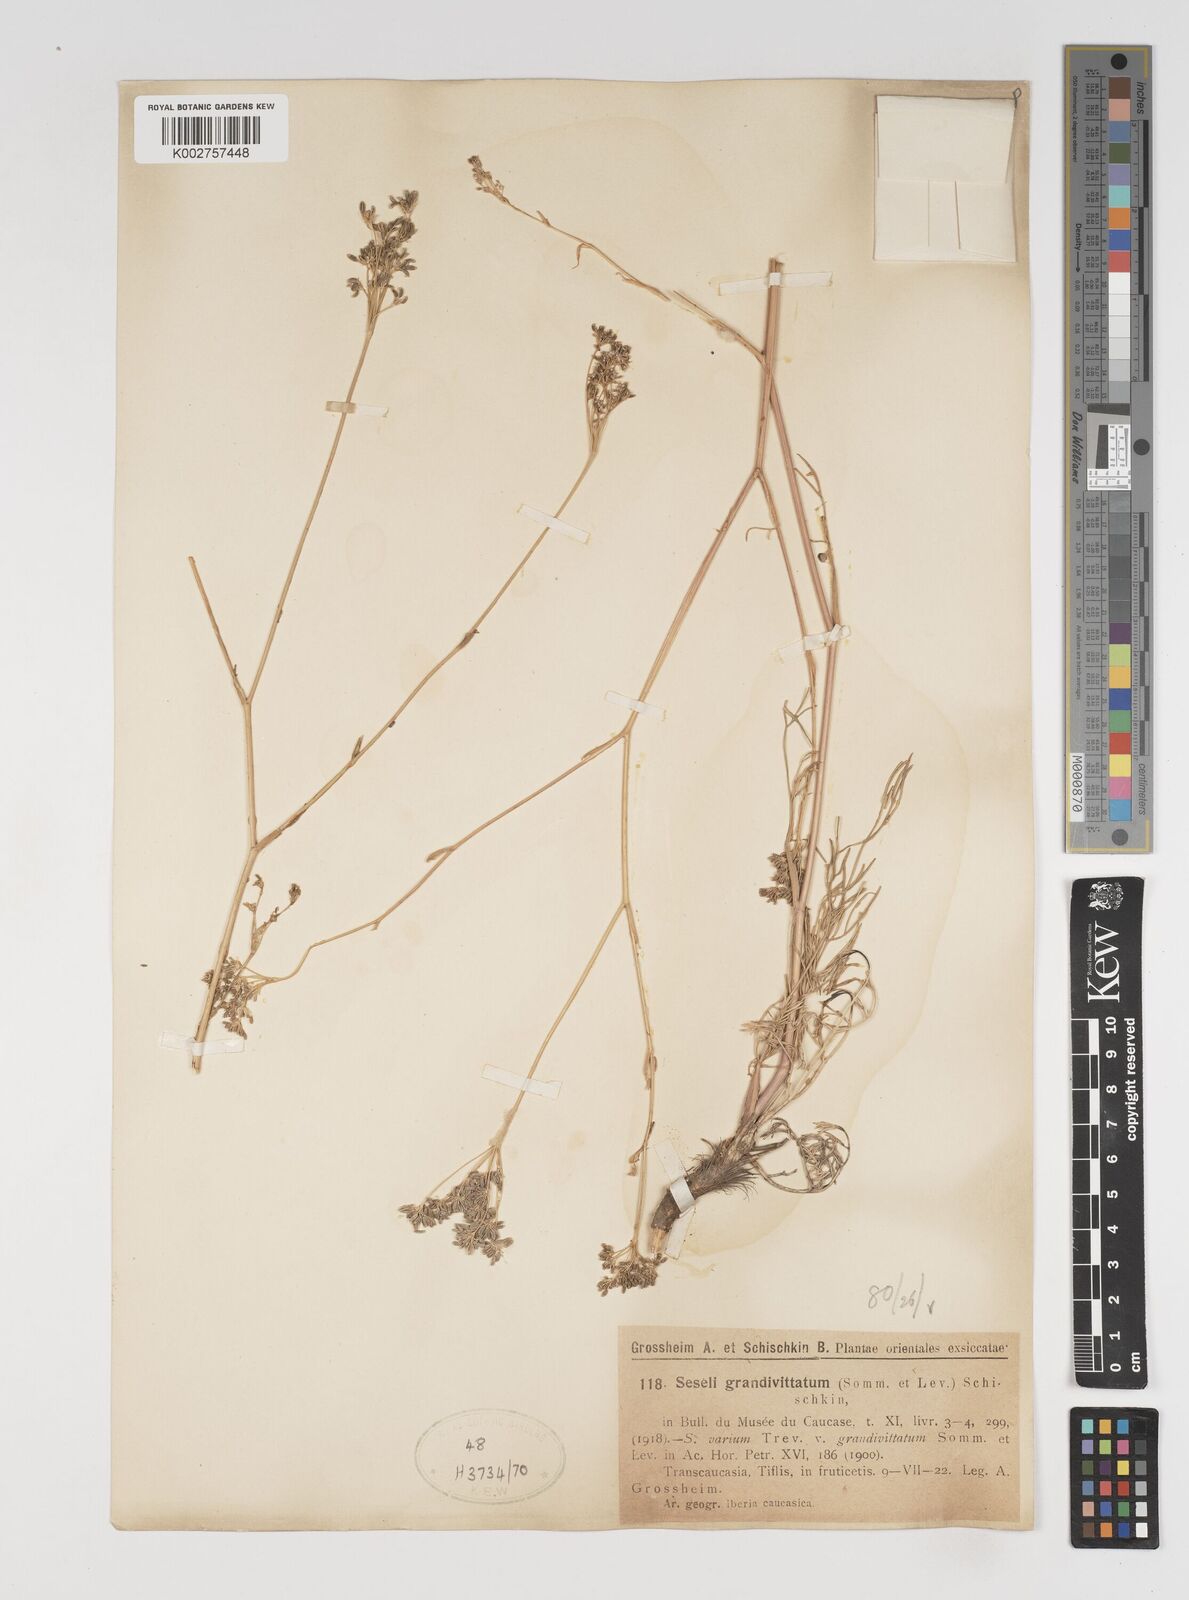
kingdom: Plantae
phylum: Tracheophyta
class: Magnoliopsida
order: Apiales
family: Apiaceae
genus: Seseli
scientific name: Seseli grandivittatum
